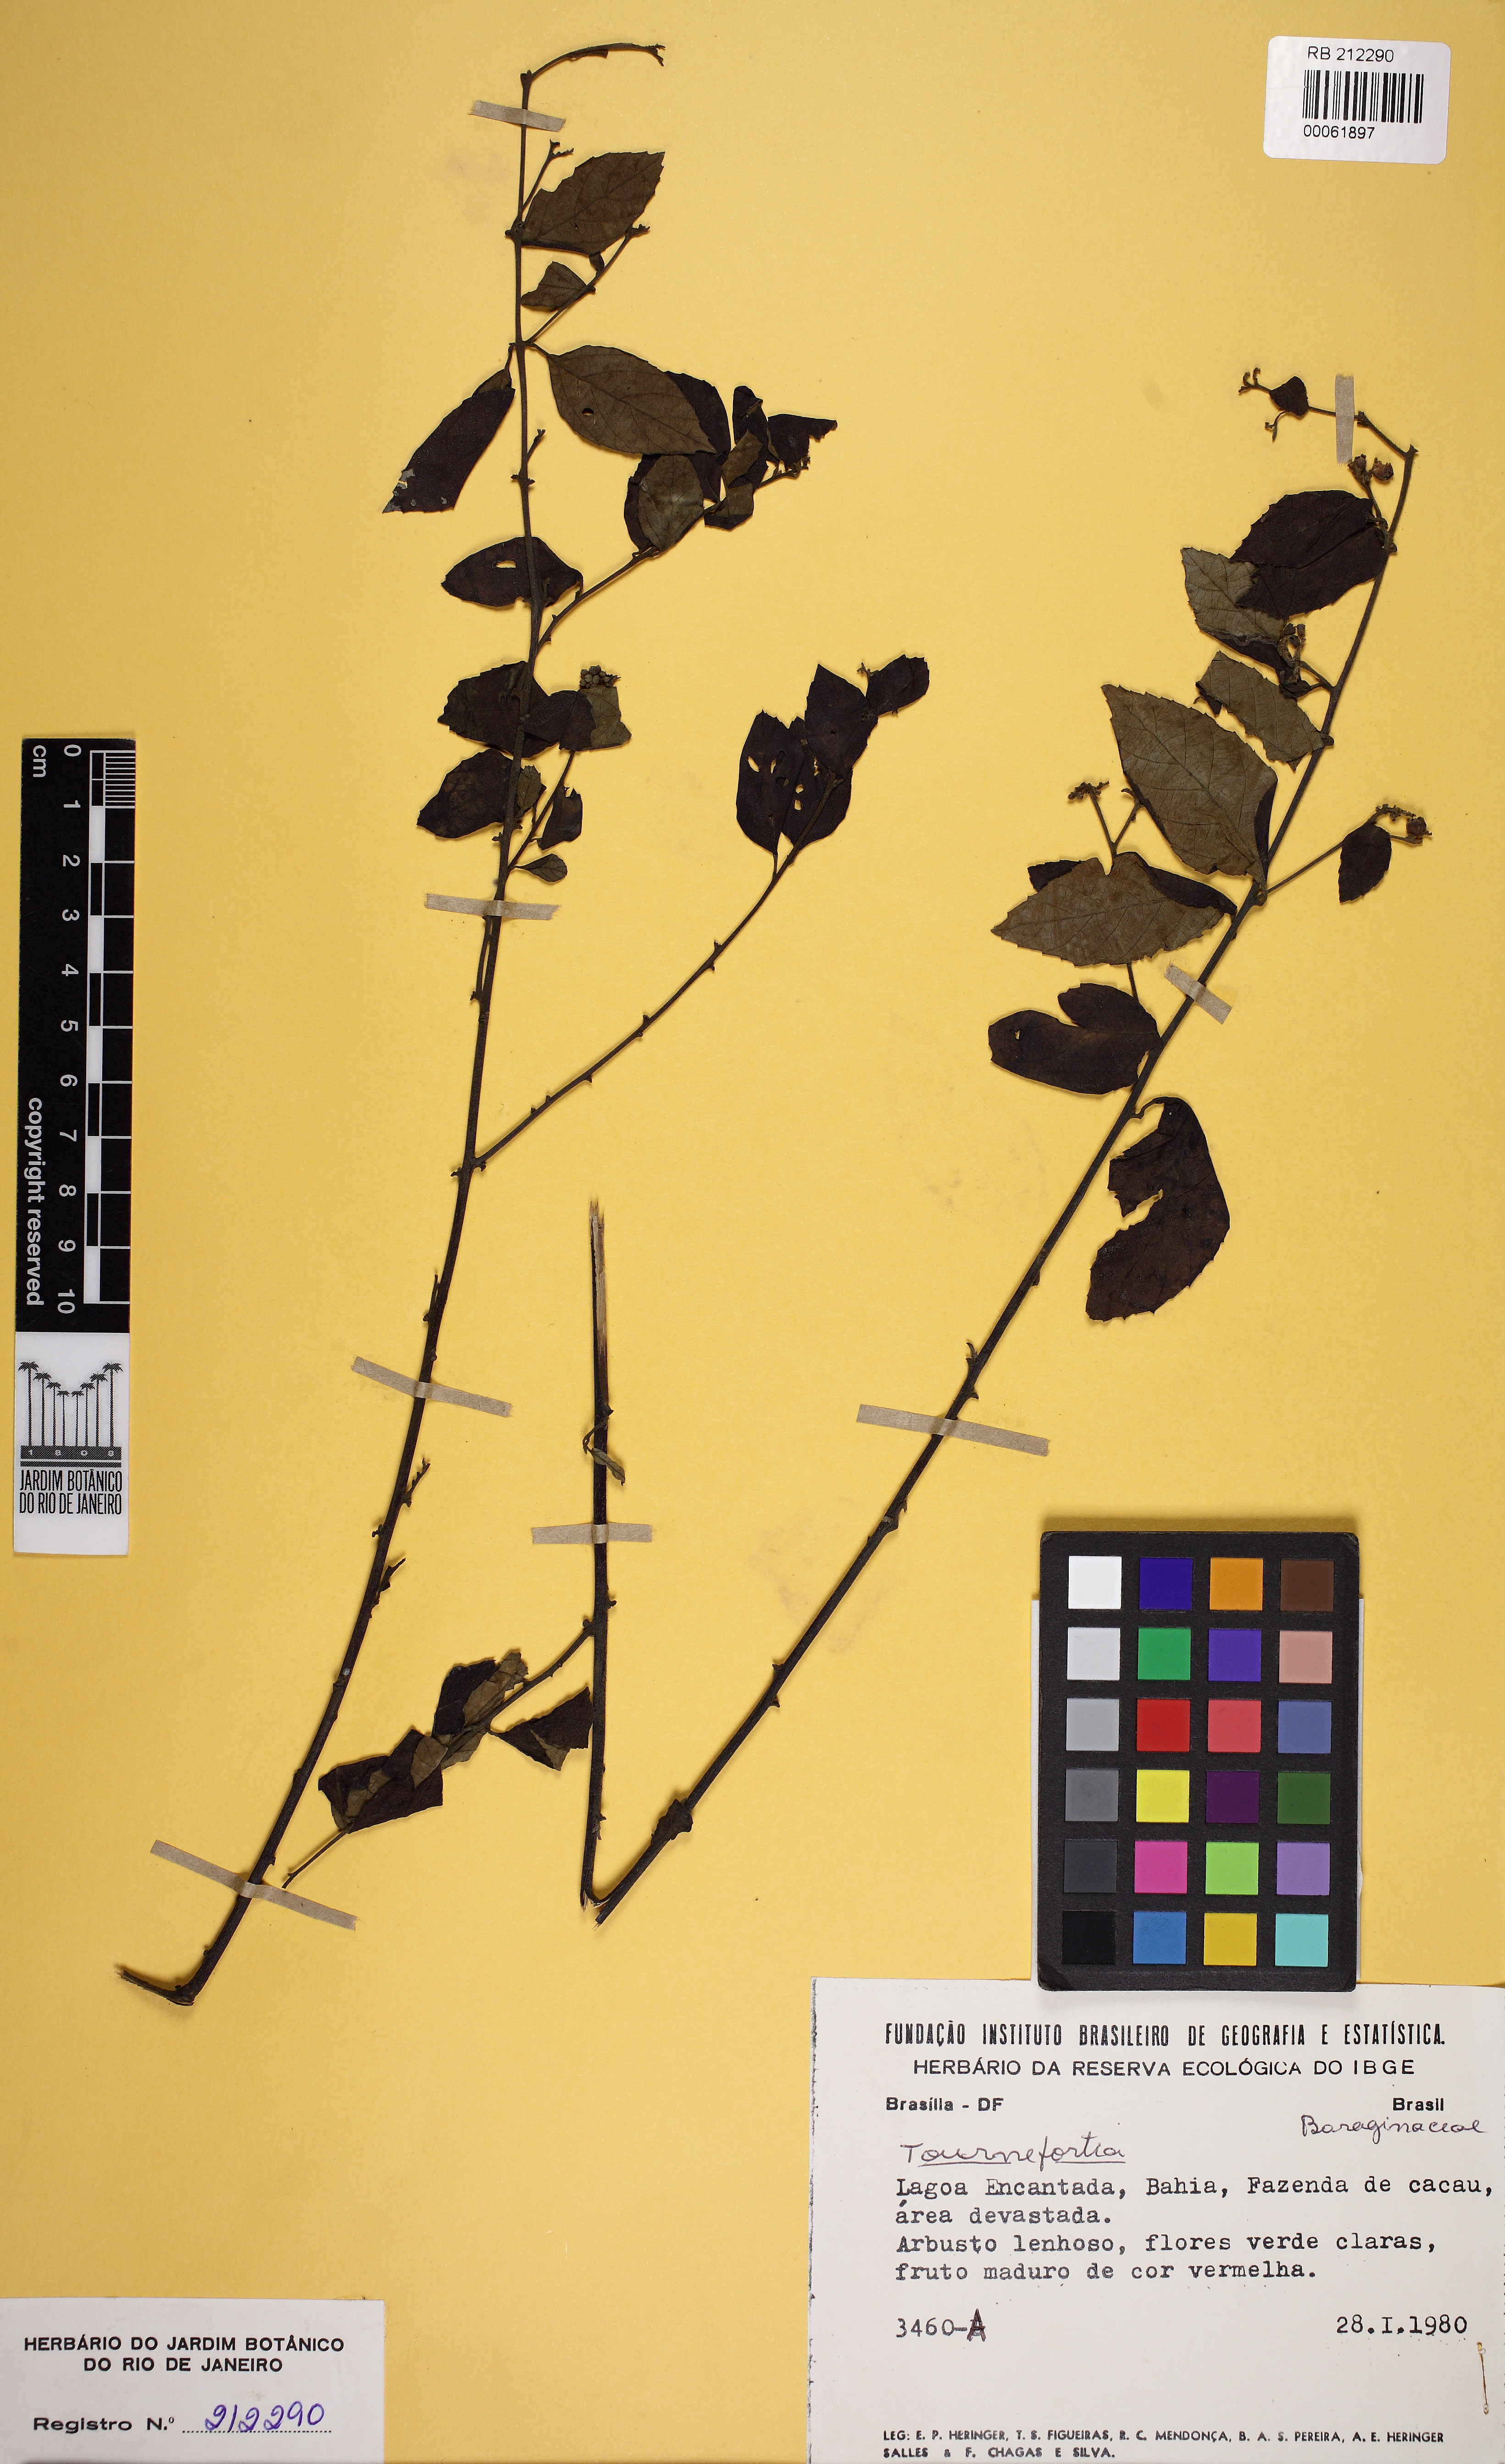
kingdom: Plantae
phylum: Tracheophyta
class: Magnoliopsida
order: Boraginales
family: Cordiaceae
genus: Varronia
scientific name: Varronia polycephala
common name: Black-sage
